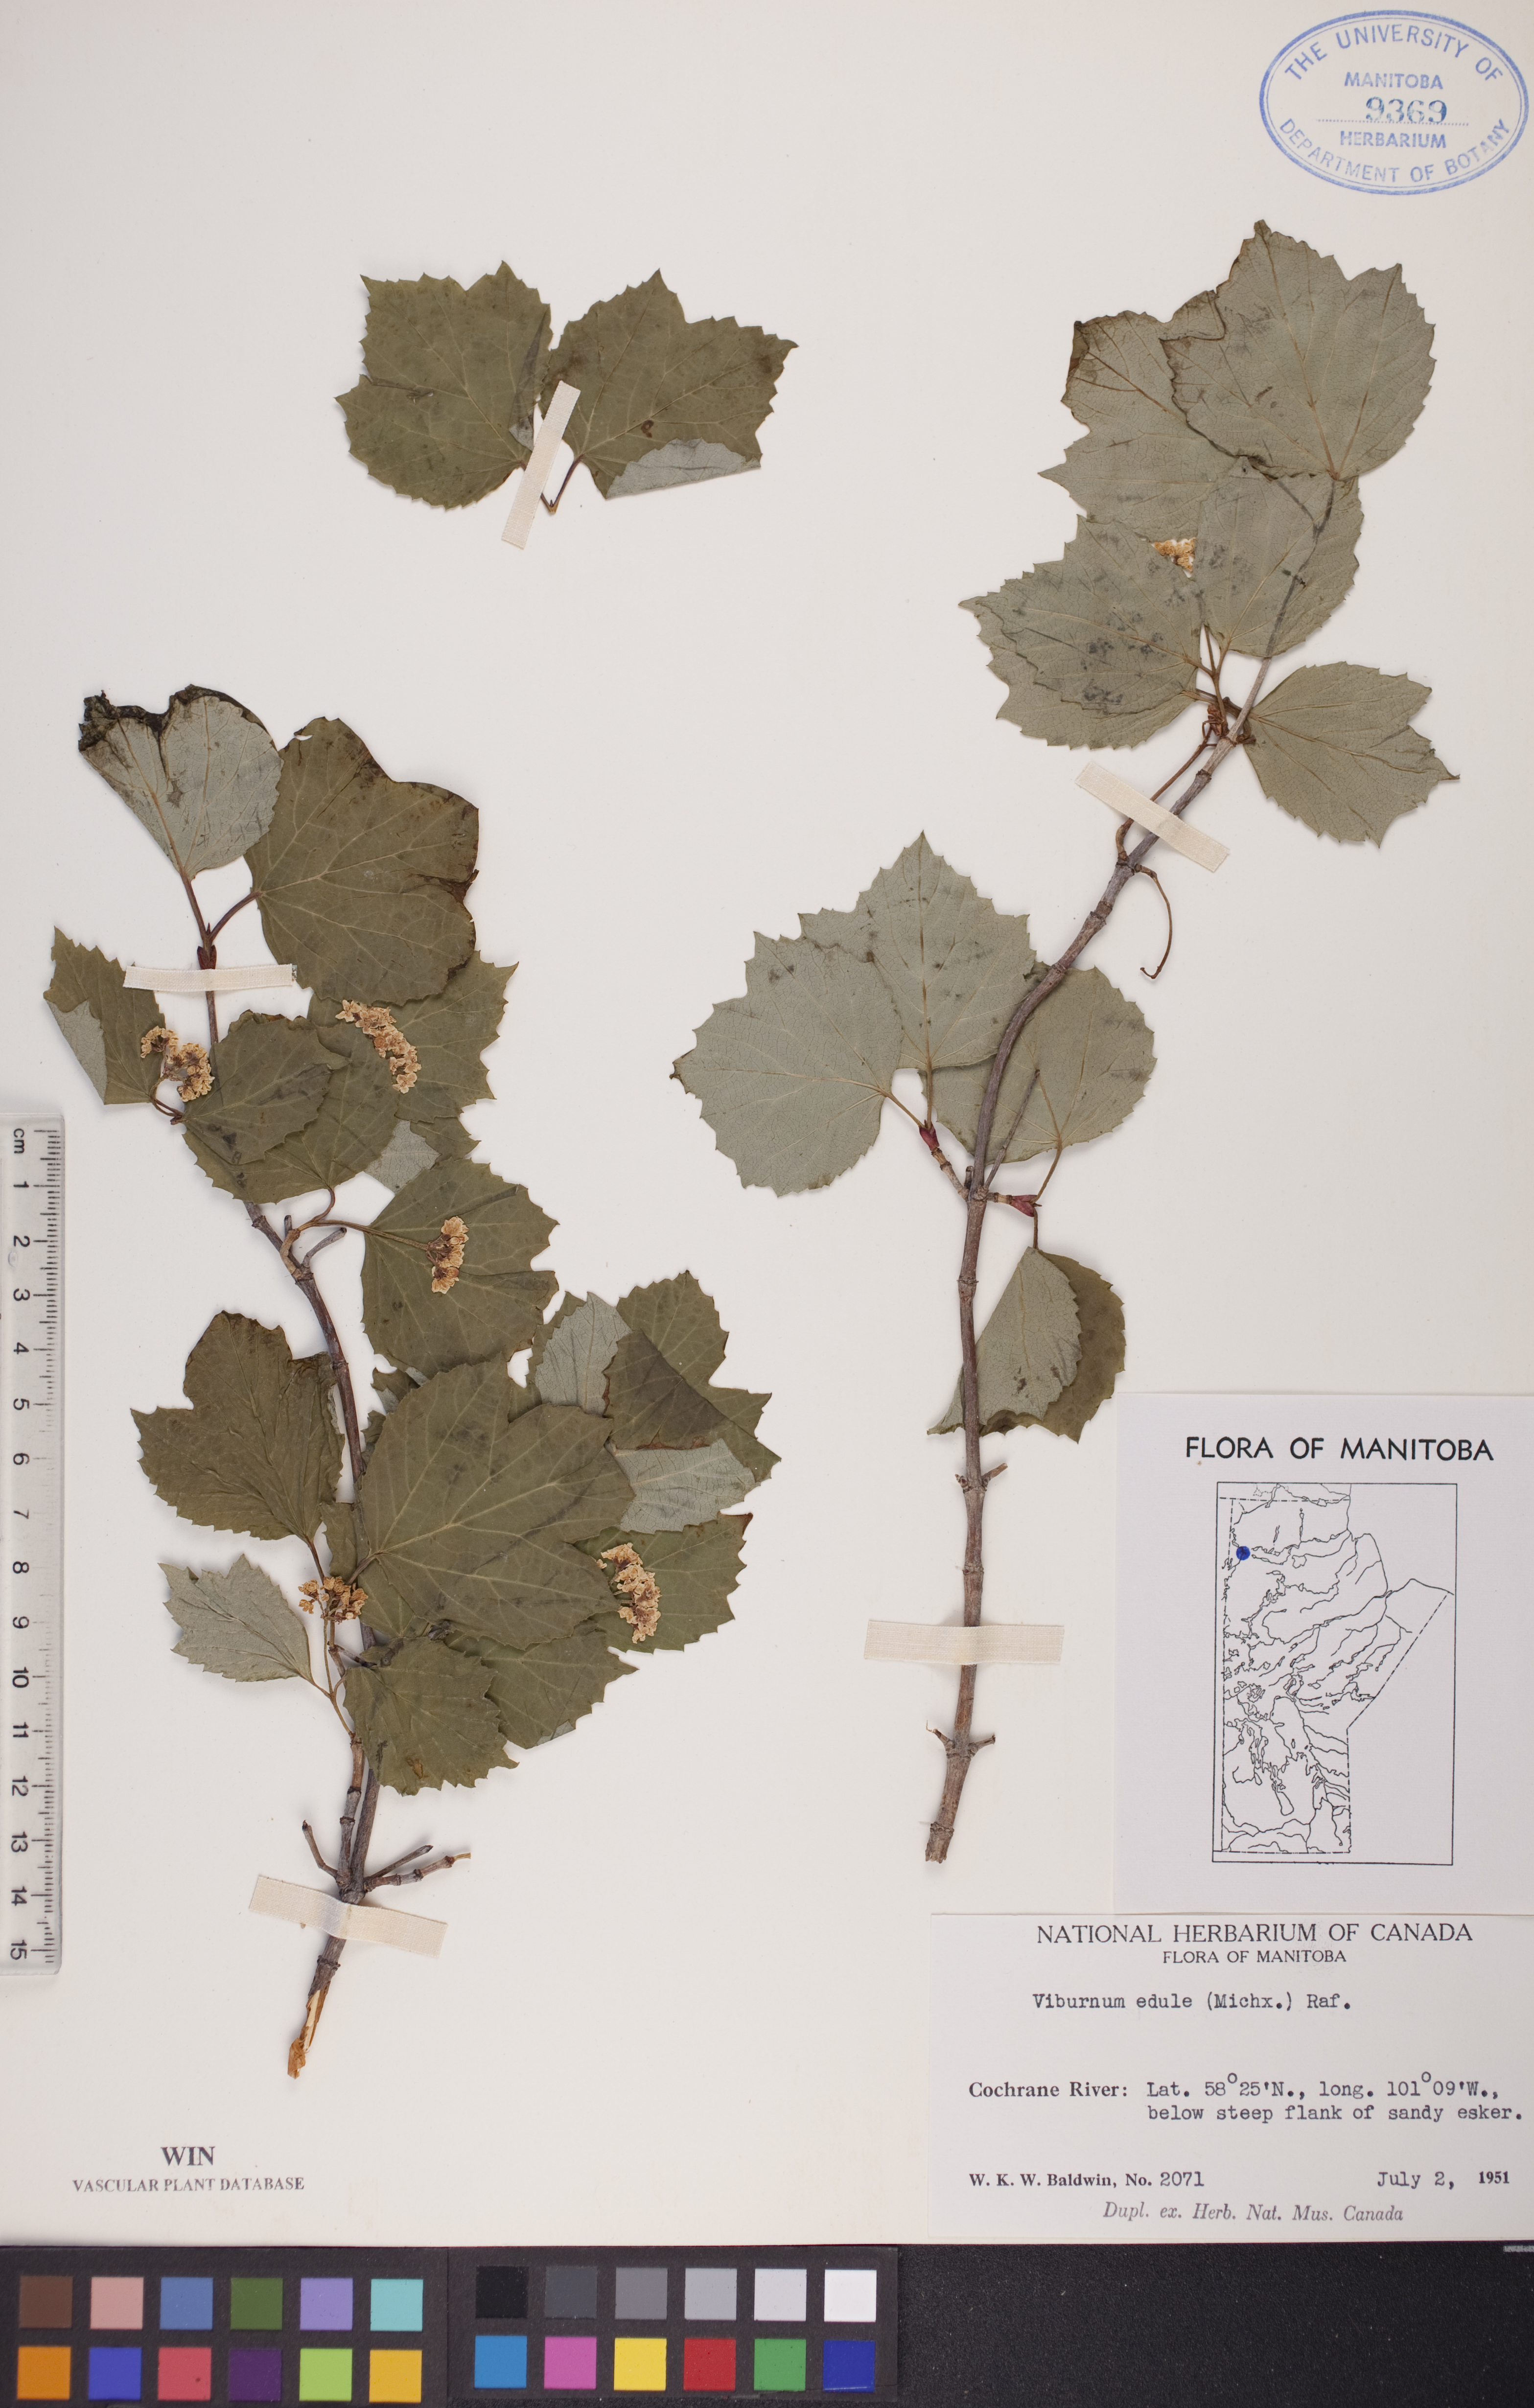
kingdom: Plantae
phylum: Tracheophyta
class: Magnoliopsida
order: Dipsacales
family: Viburnaceae
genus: Viburnum
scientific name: Viburnum edule
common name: Mooseberry
